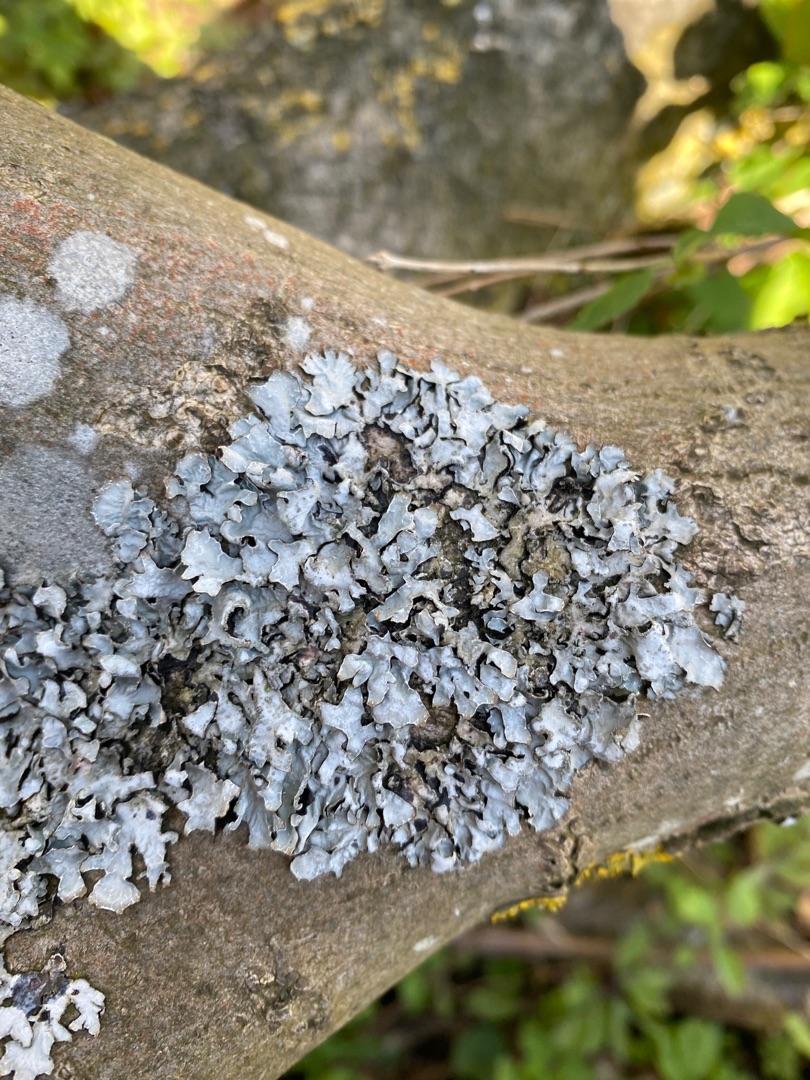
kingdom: Fungi
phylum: Ascomycota
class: Lecanoromycetes
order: Lecanorales
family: Parmeliaceae
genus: Parmelia
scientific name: Parmelia sulcata
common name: Rynket skållav
